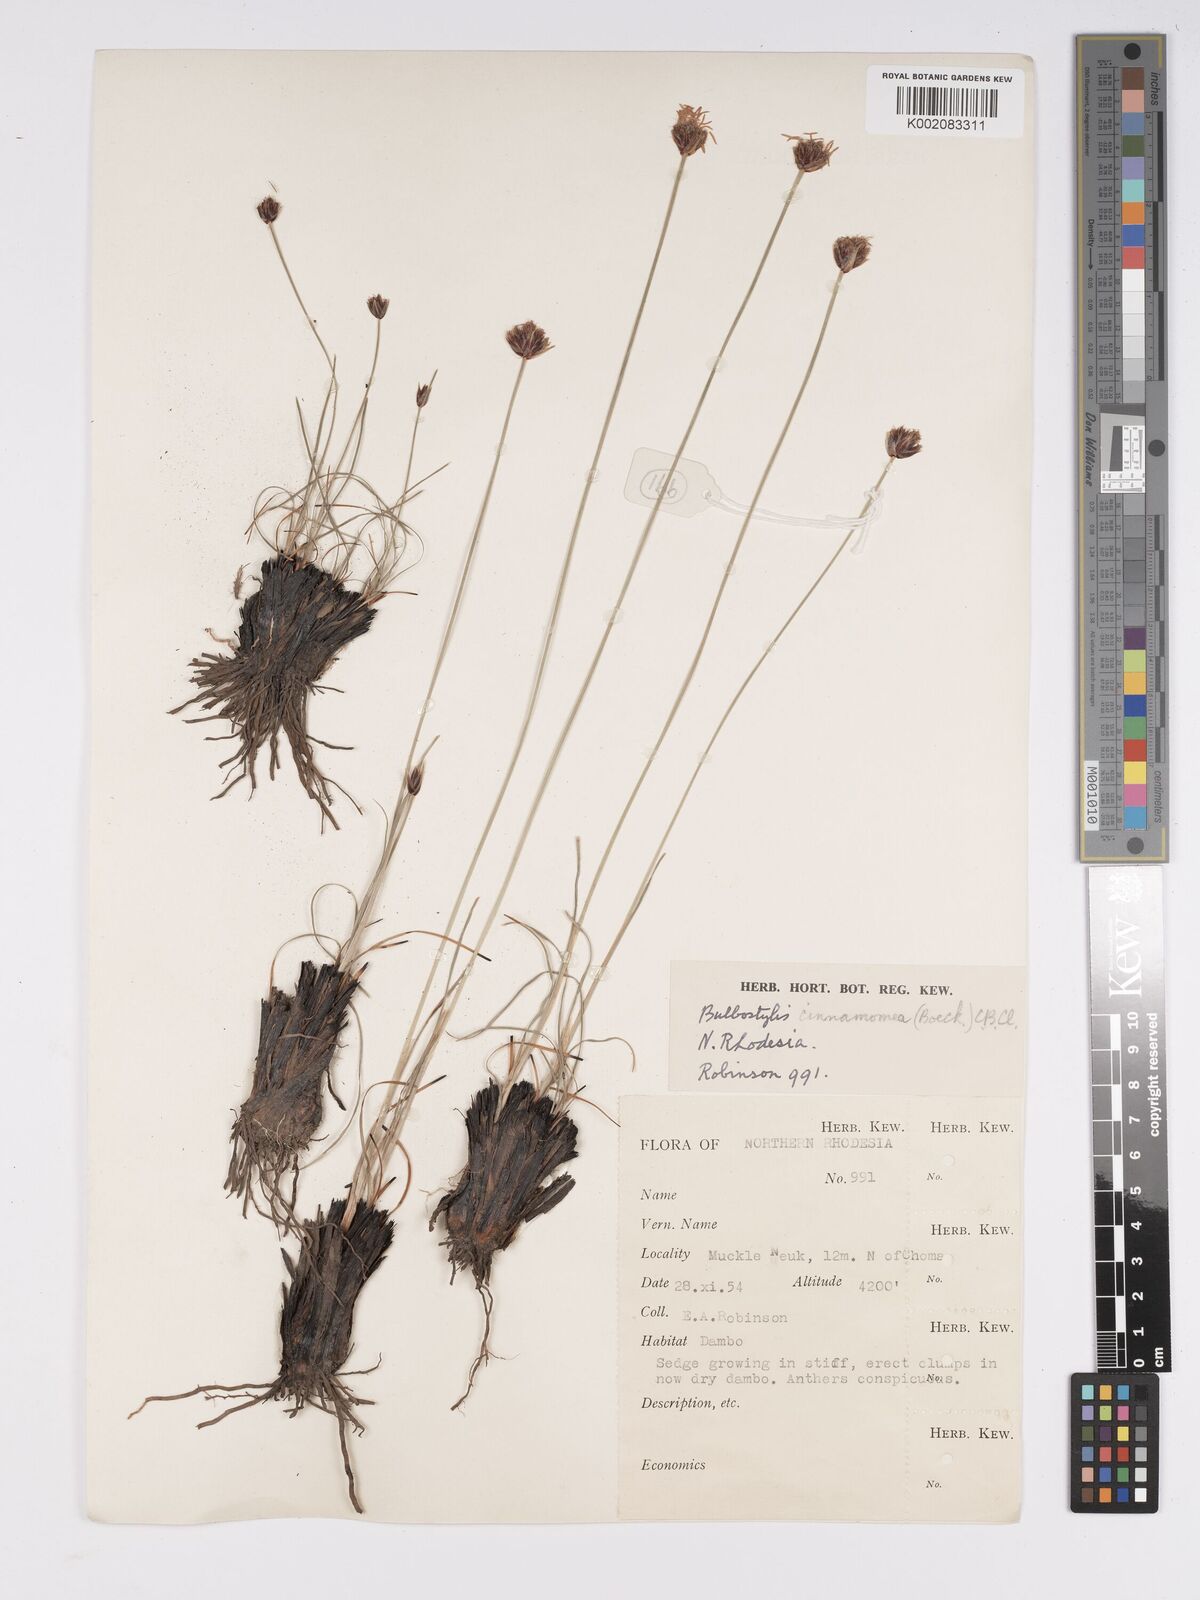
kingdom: Plantae
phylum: Tracheophyta
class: Liliopsida
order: Poales
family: Cyperaceae
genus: Bulbostylis
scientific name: Bulbostylis schoenoides
